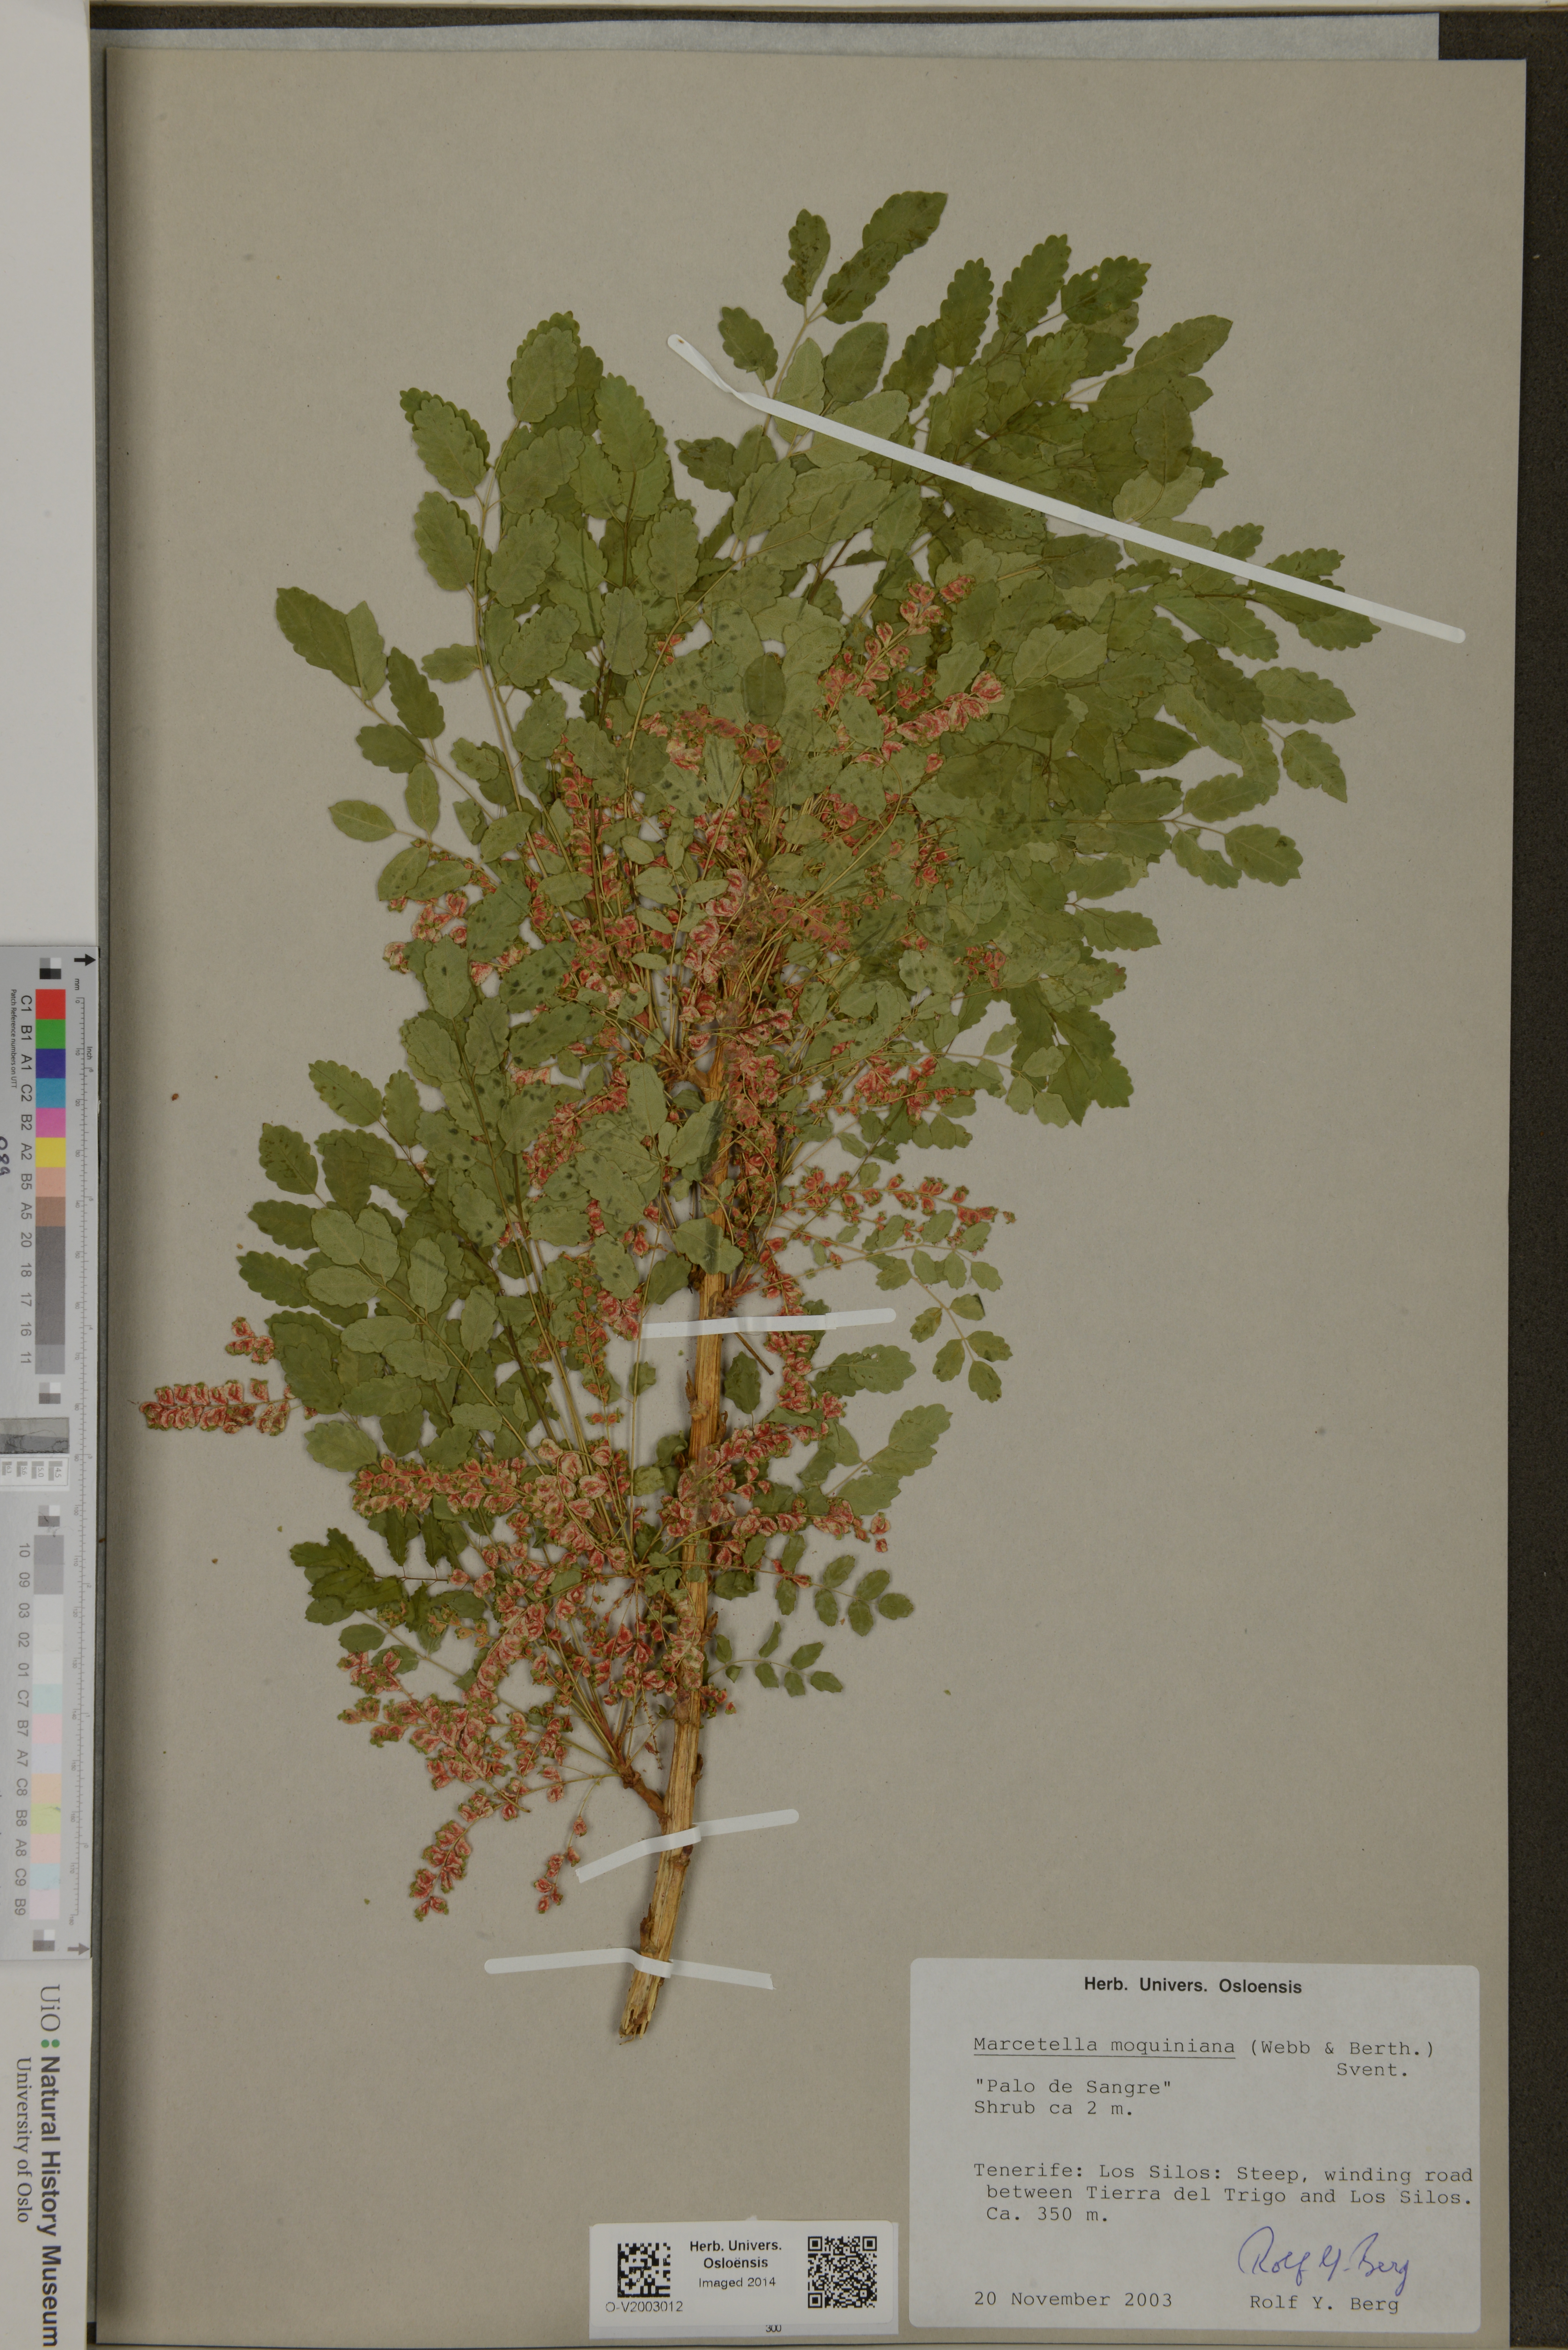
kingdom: Plantae
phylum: Tracheophyta
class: Magnoliopsida
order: Rosales
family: Rosaceae
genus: Marcetella
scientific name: Marcetella moquiniana
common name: Burnet tree
